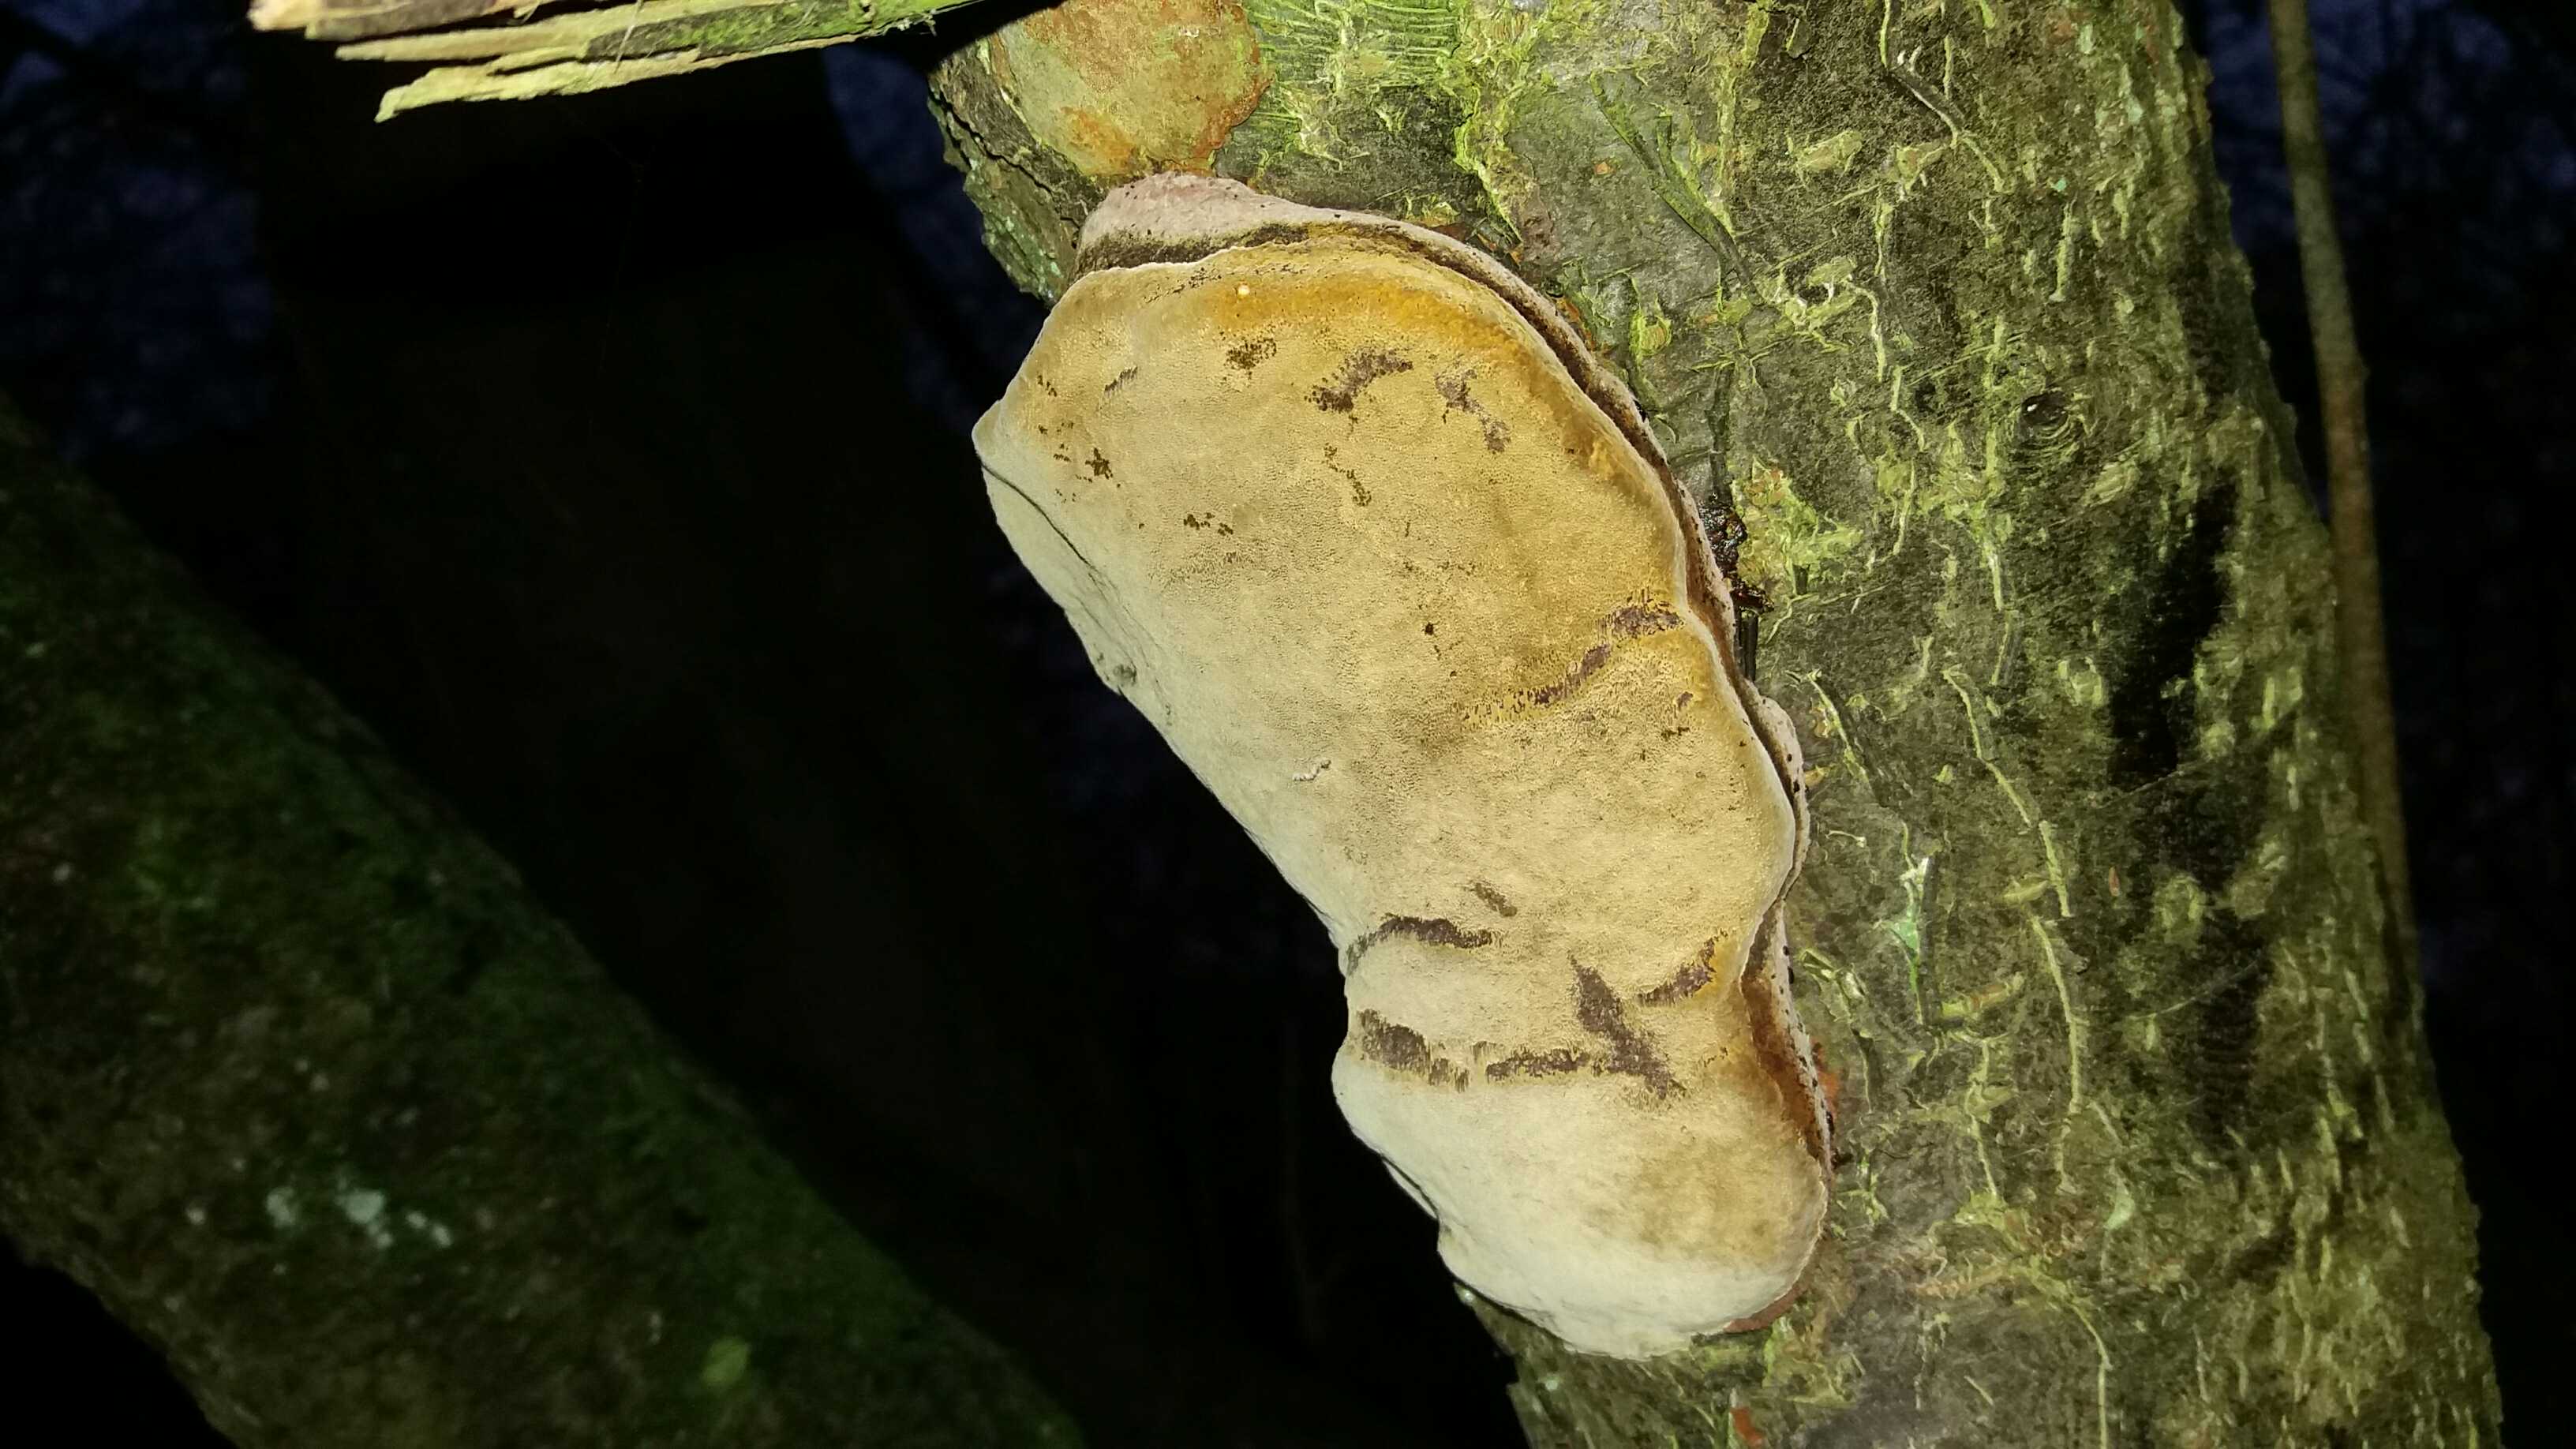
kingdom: Fungi
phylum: Basidiomycota
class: Agaricomycetes
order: Hymenochaetales
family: Hymenochaetaceae
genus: Phellinus
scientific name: Phellinus pomaceus
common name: blomme-ildporesvamp
